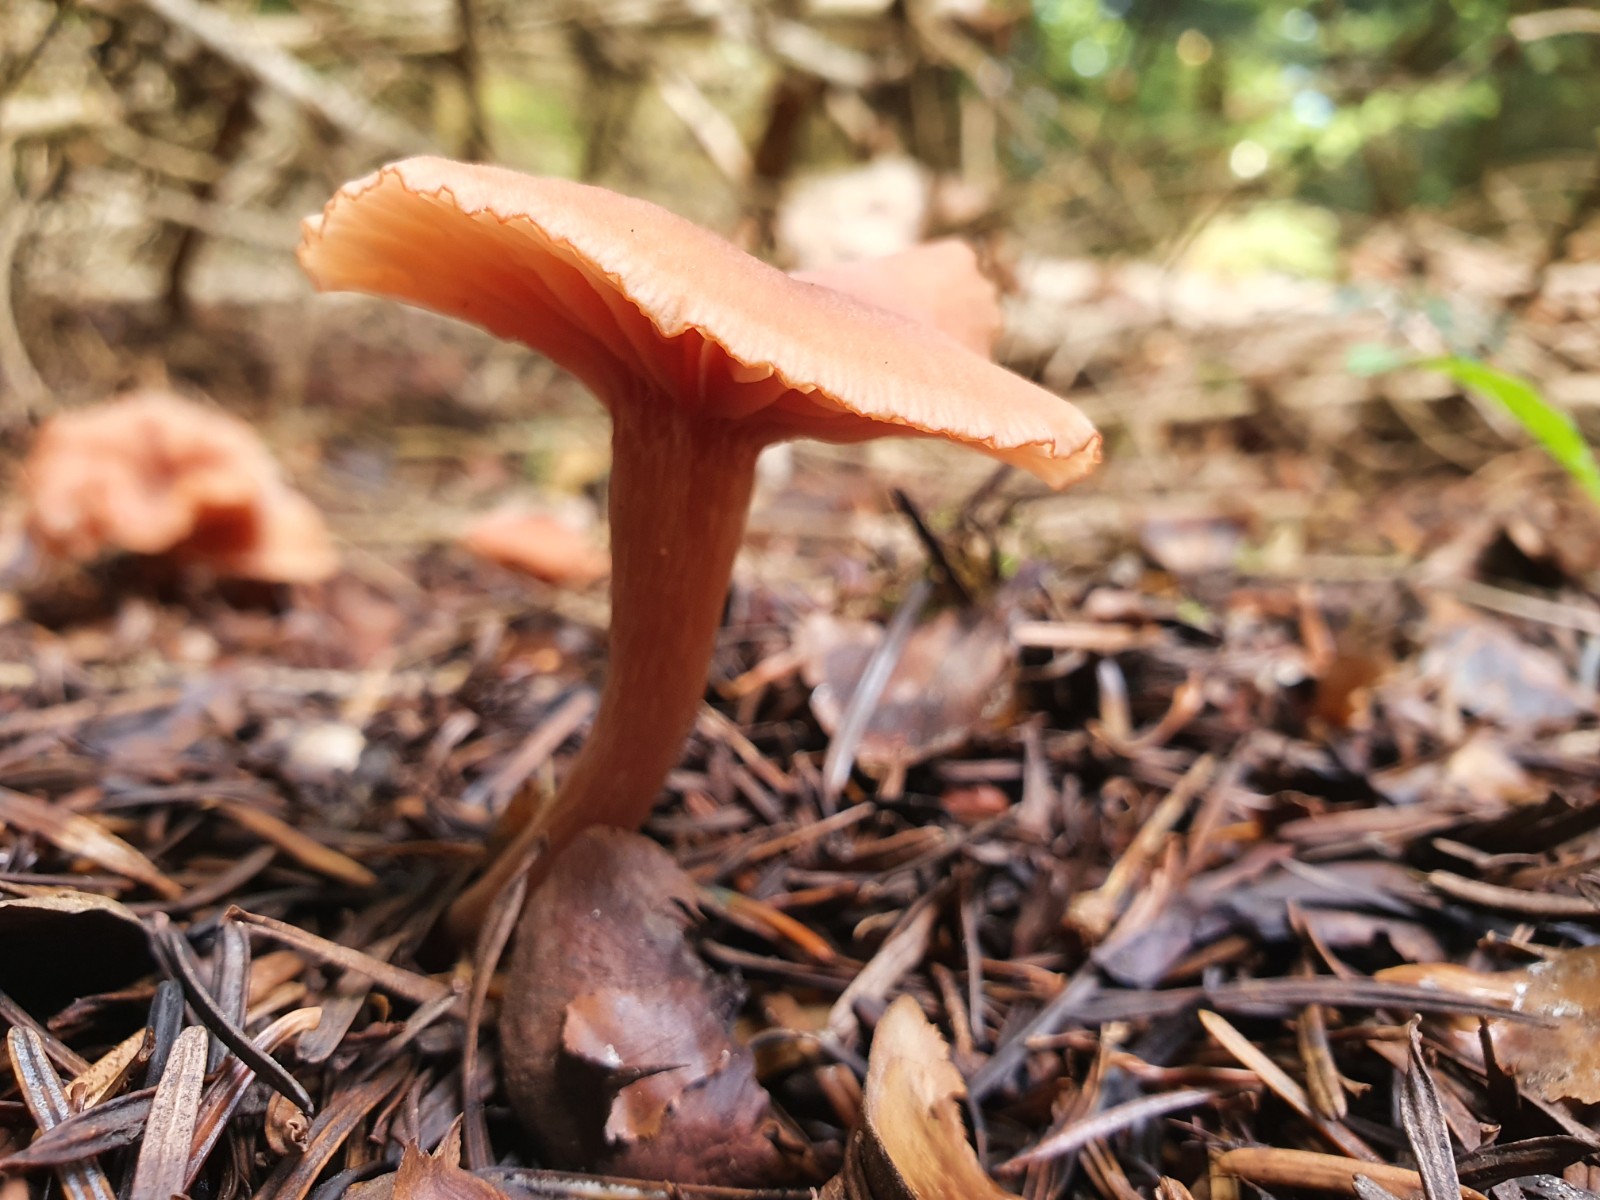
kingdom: Fungi
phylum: Basidiomycota
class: Agaricomycetes
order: Agaricales
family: Hydnangiaceae
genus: Laccaria
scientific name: Laccaria laccata
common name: rød ametysthat
